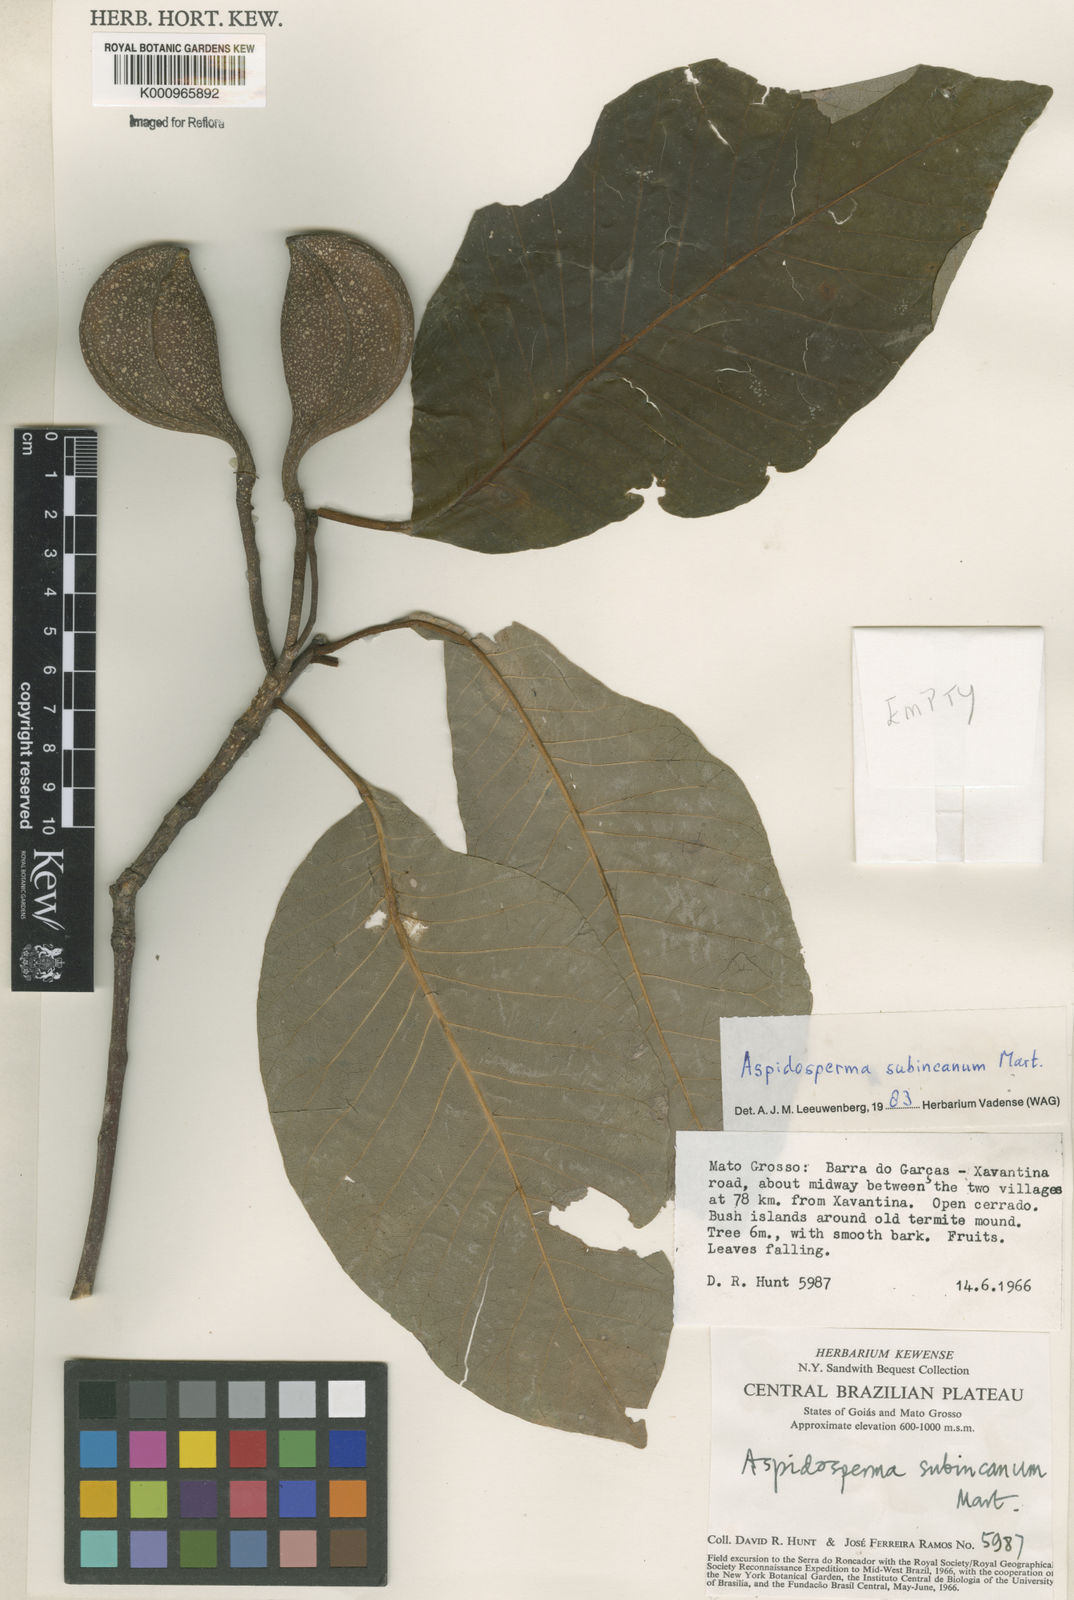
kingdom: Plantae
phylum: Tracheophyta
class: Magnoliopsida
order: Gentianales
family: Apocynaceae
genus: Aspidosperma
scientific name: Aspidosperma subincanum
